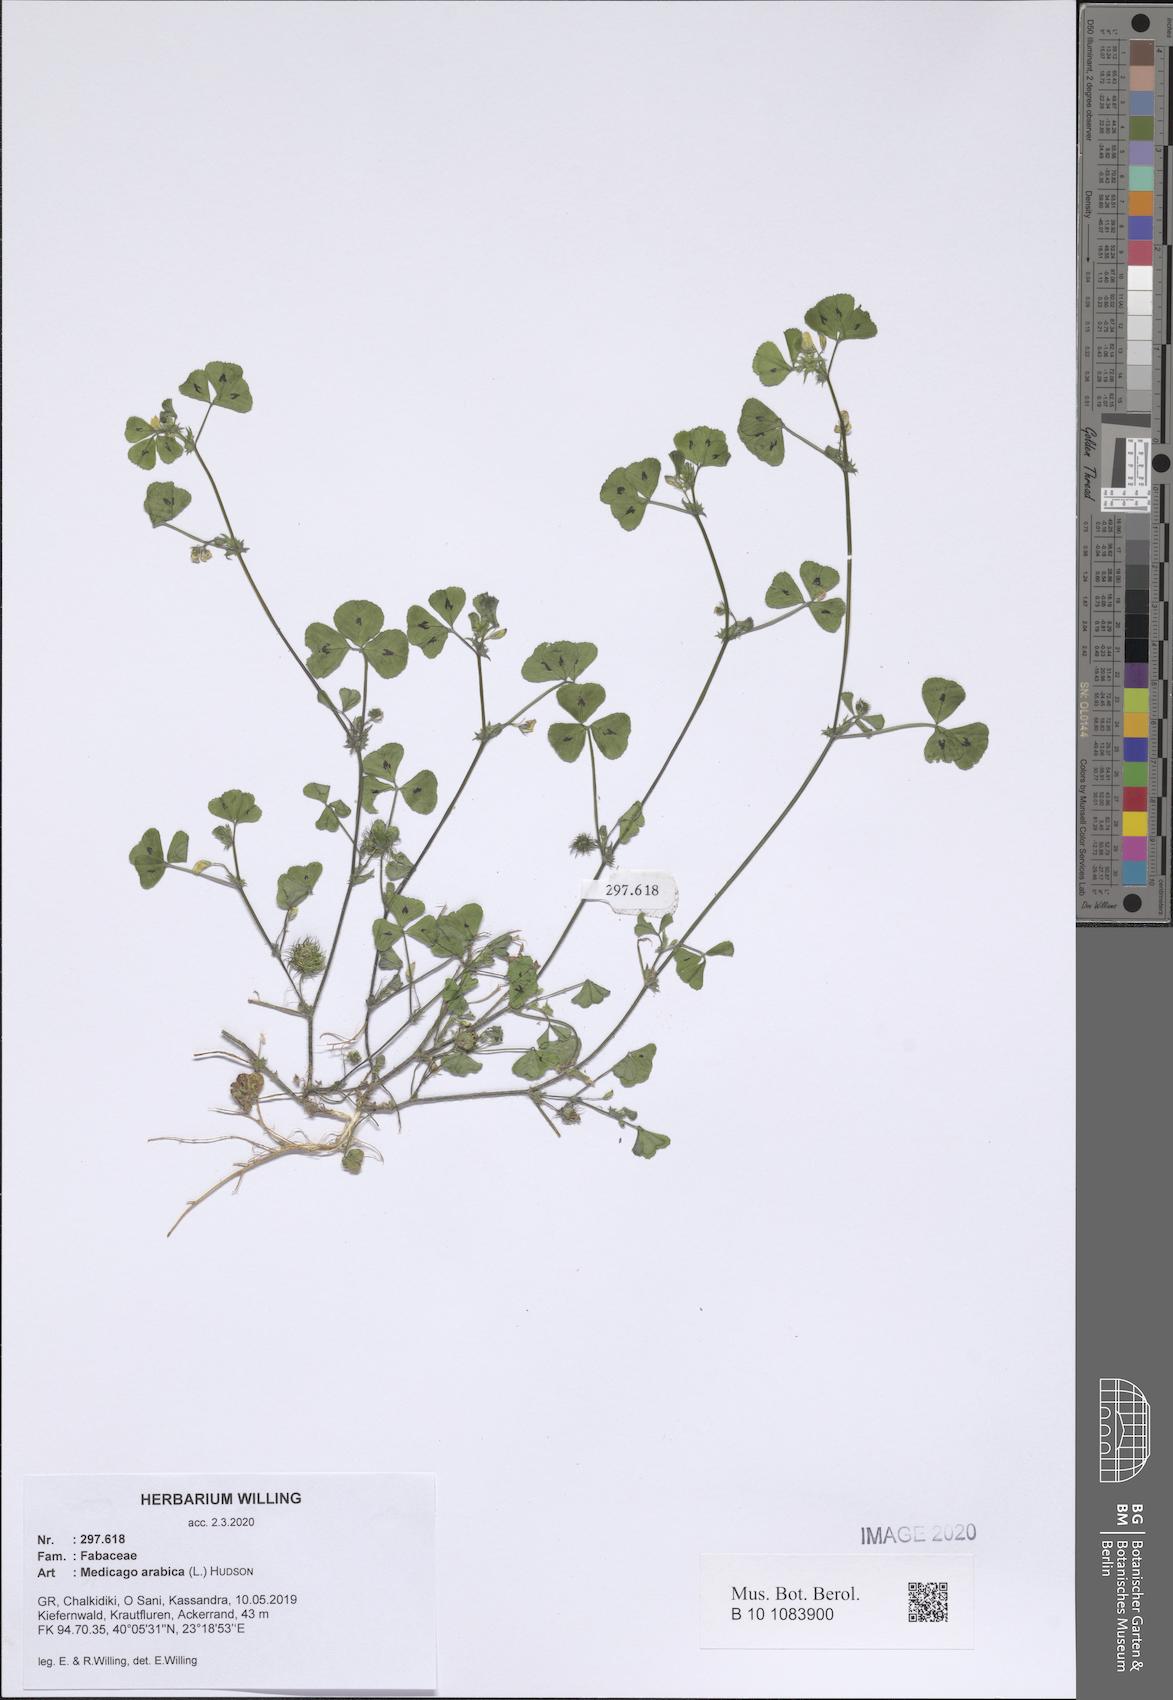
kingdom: Plantae
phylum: Tracheophyta
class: Magnoliopsida
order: Fabales
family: Fabaceae
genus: Medicago
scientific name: Medicago arabica
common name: Spotted medick
